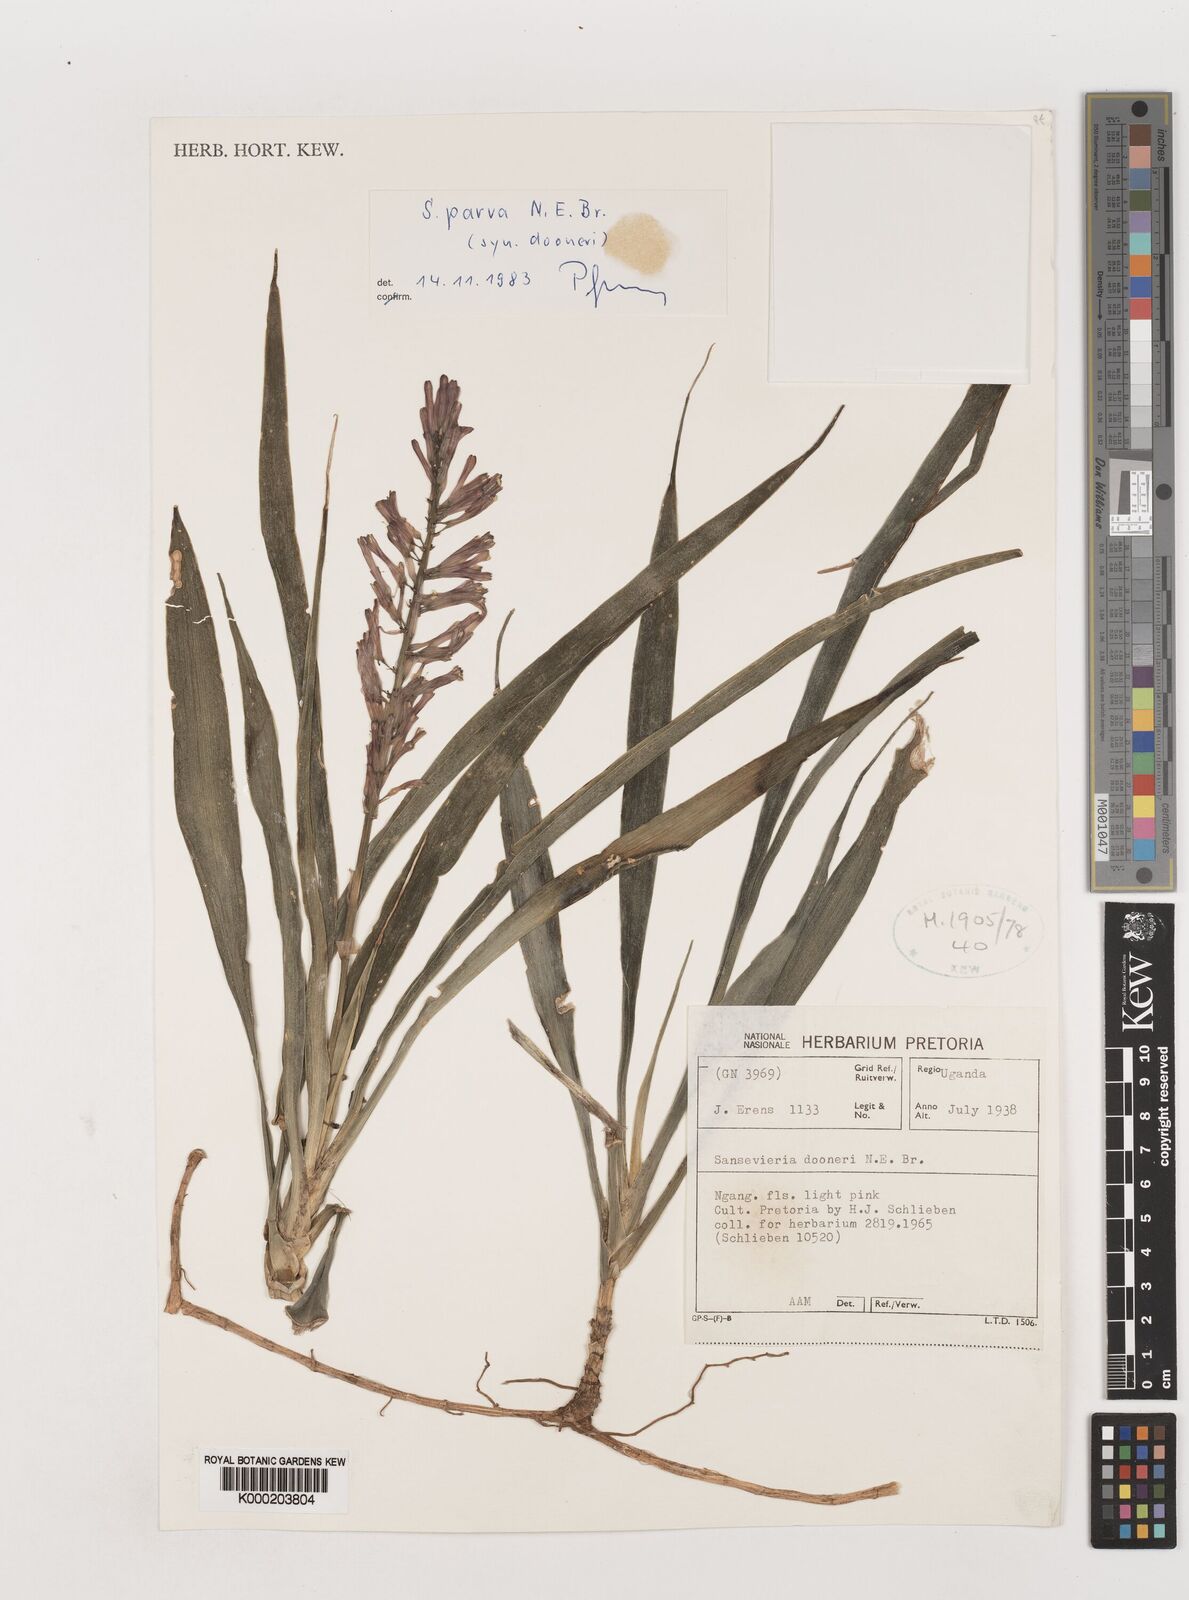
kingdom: Plantae
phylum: Tracheophyta
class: Liliopsida
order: Asparagales
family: Asparagaceae
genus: Dracaena
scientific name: Dracaena parva
